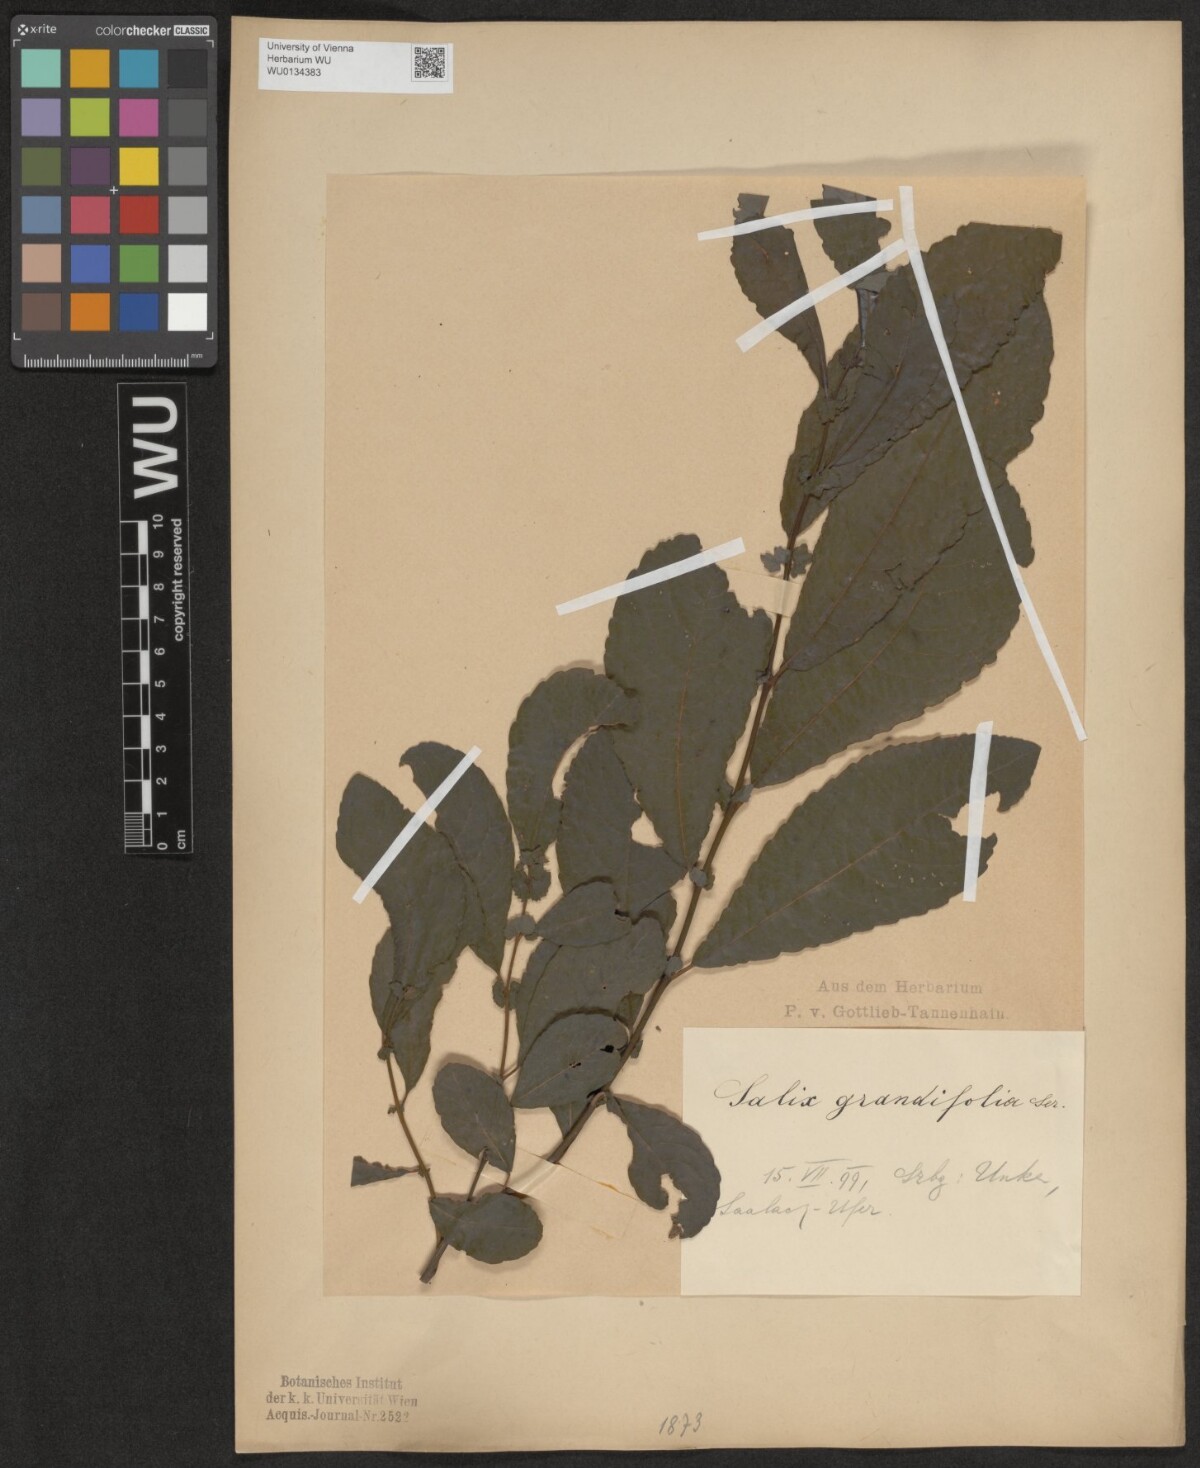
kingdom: Plantae
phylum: Tracheophyta
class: Magnoliopsida
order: Malpighiales
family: Salicaceae
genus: Salix
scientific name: Salix appendiculata
